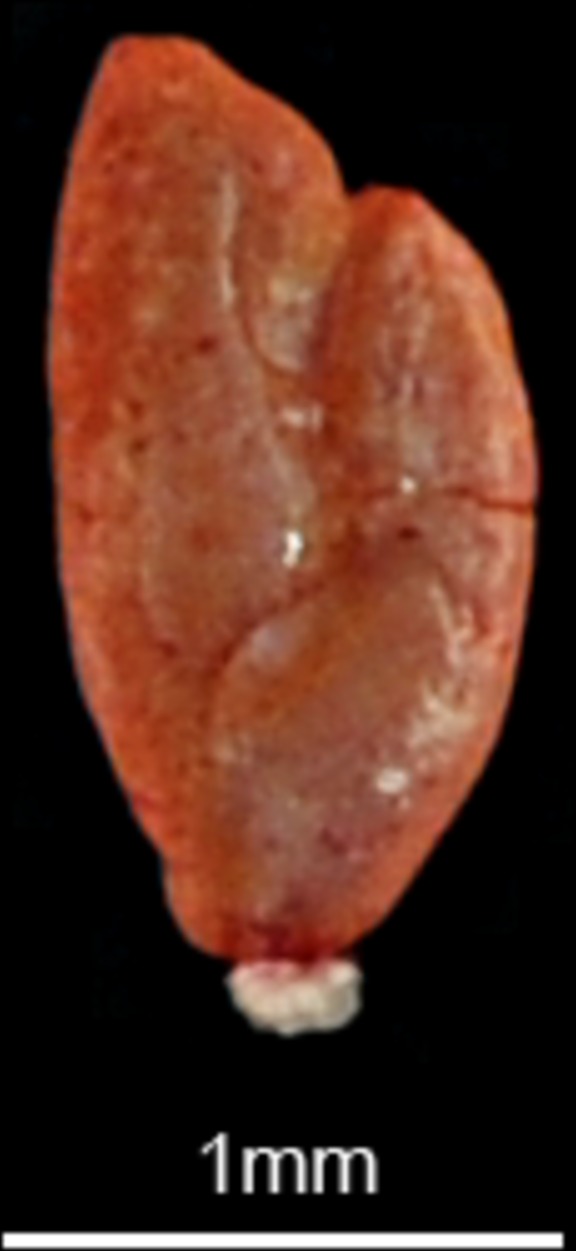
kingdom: Animalia
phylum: Chordata
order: Perciformes
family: Blenniidae
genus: Scartella
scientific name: Scartella cristata
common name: Molly miller
